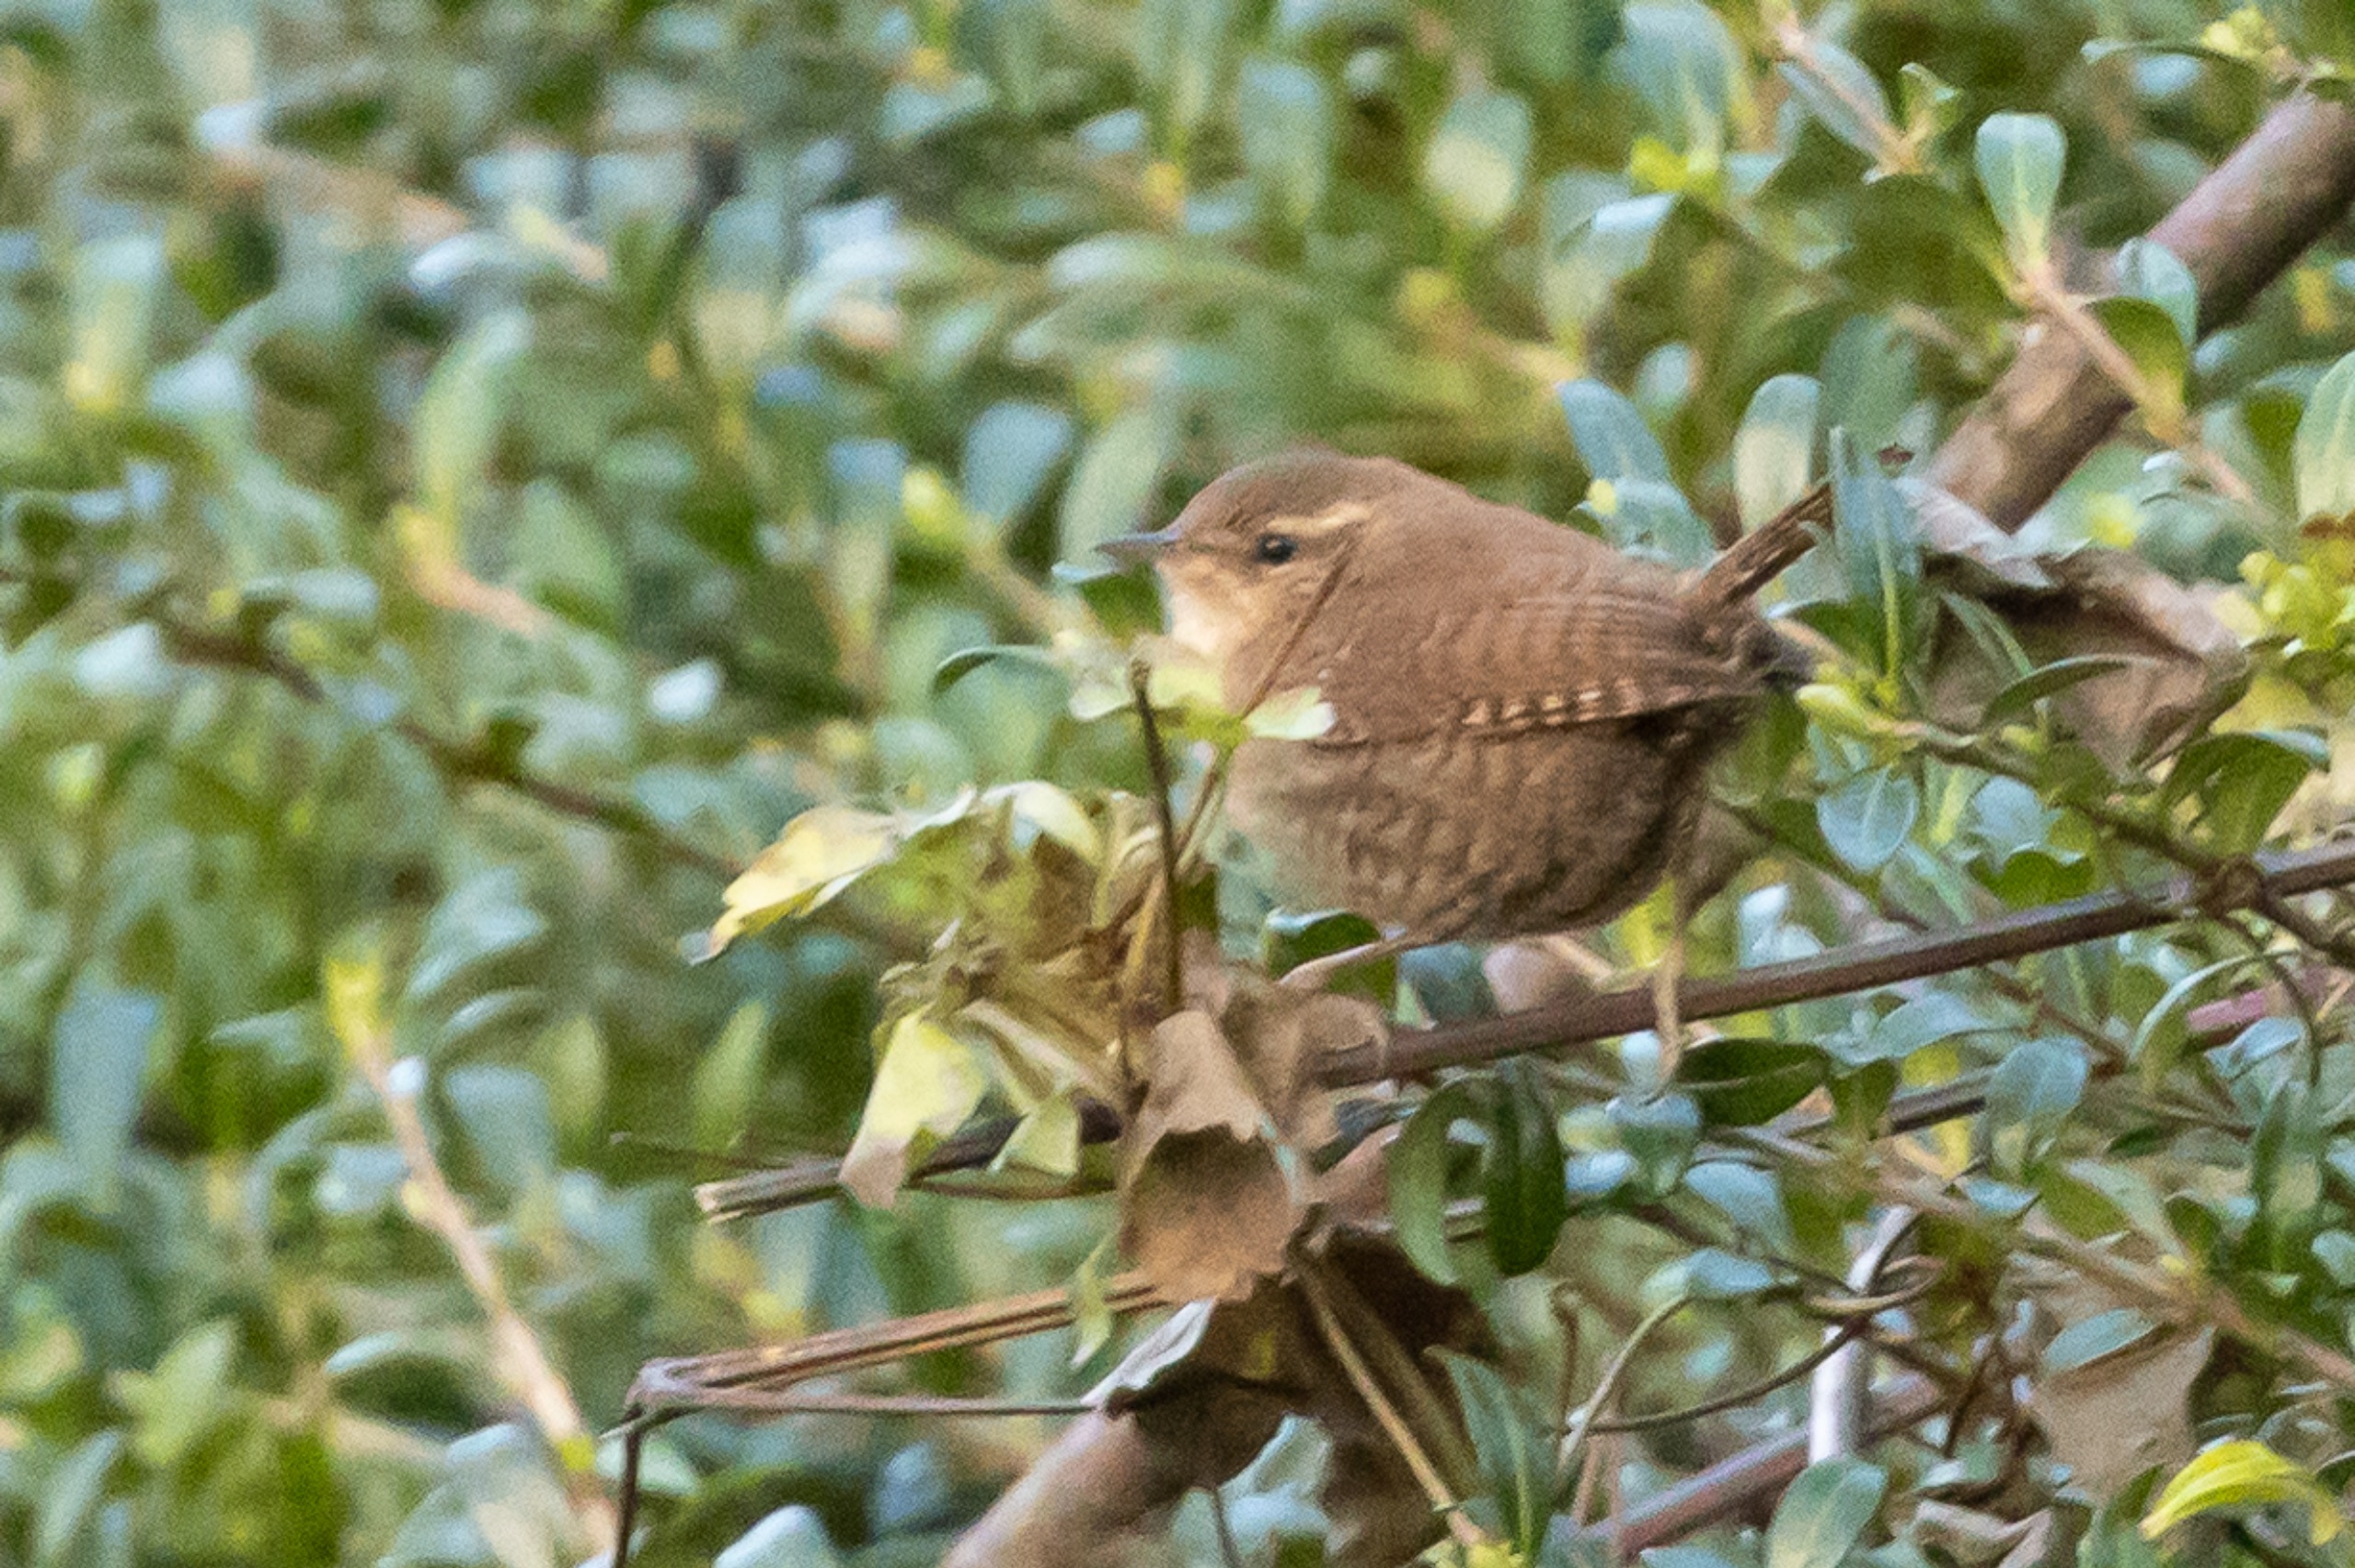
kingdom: Animalia
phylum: Chordata
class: Aves
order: Passeriformes
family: Troglodytidae
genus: Troglodytes
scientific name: Troglodytes troglodytes
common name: Gærdesmutte
